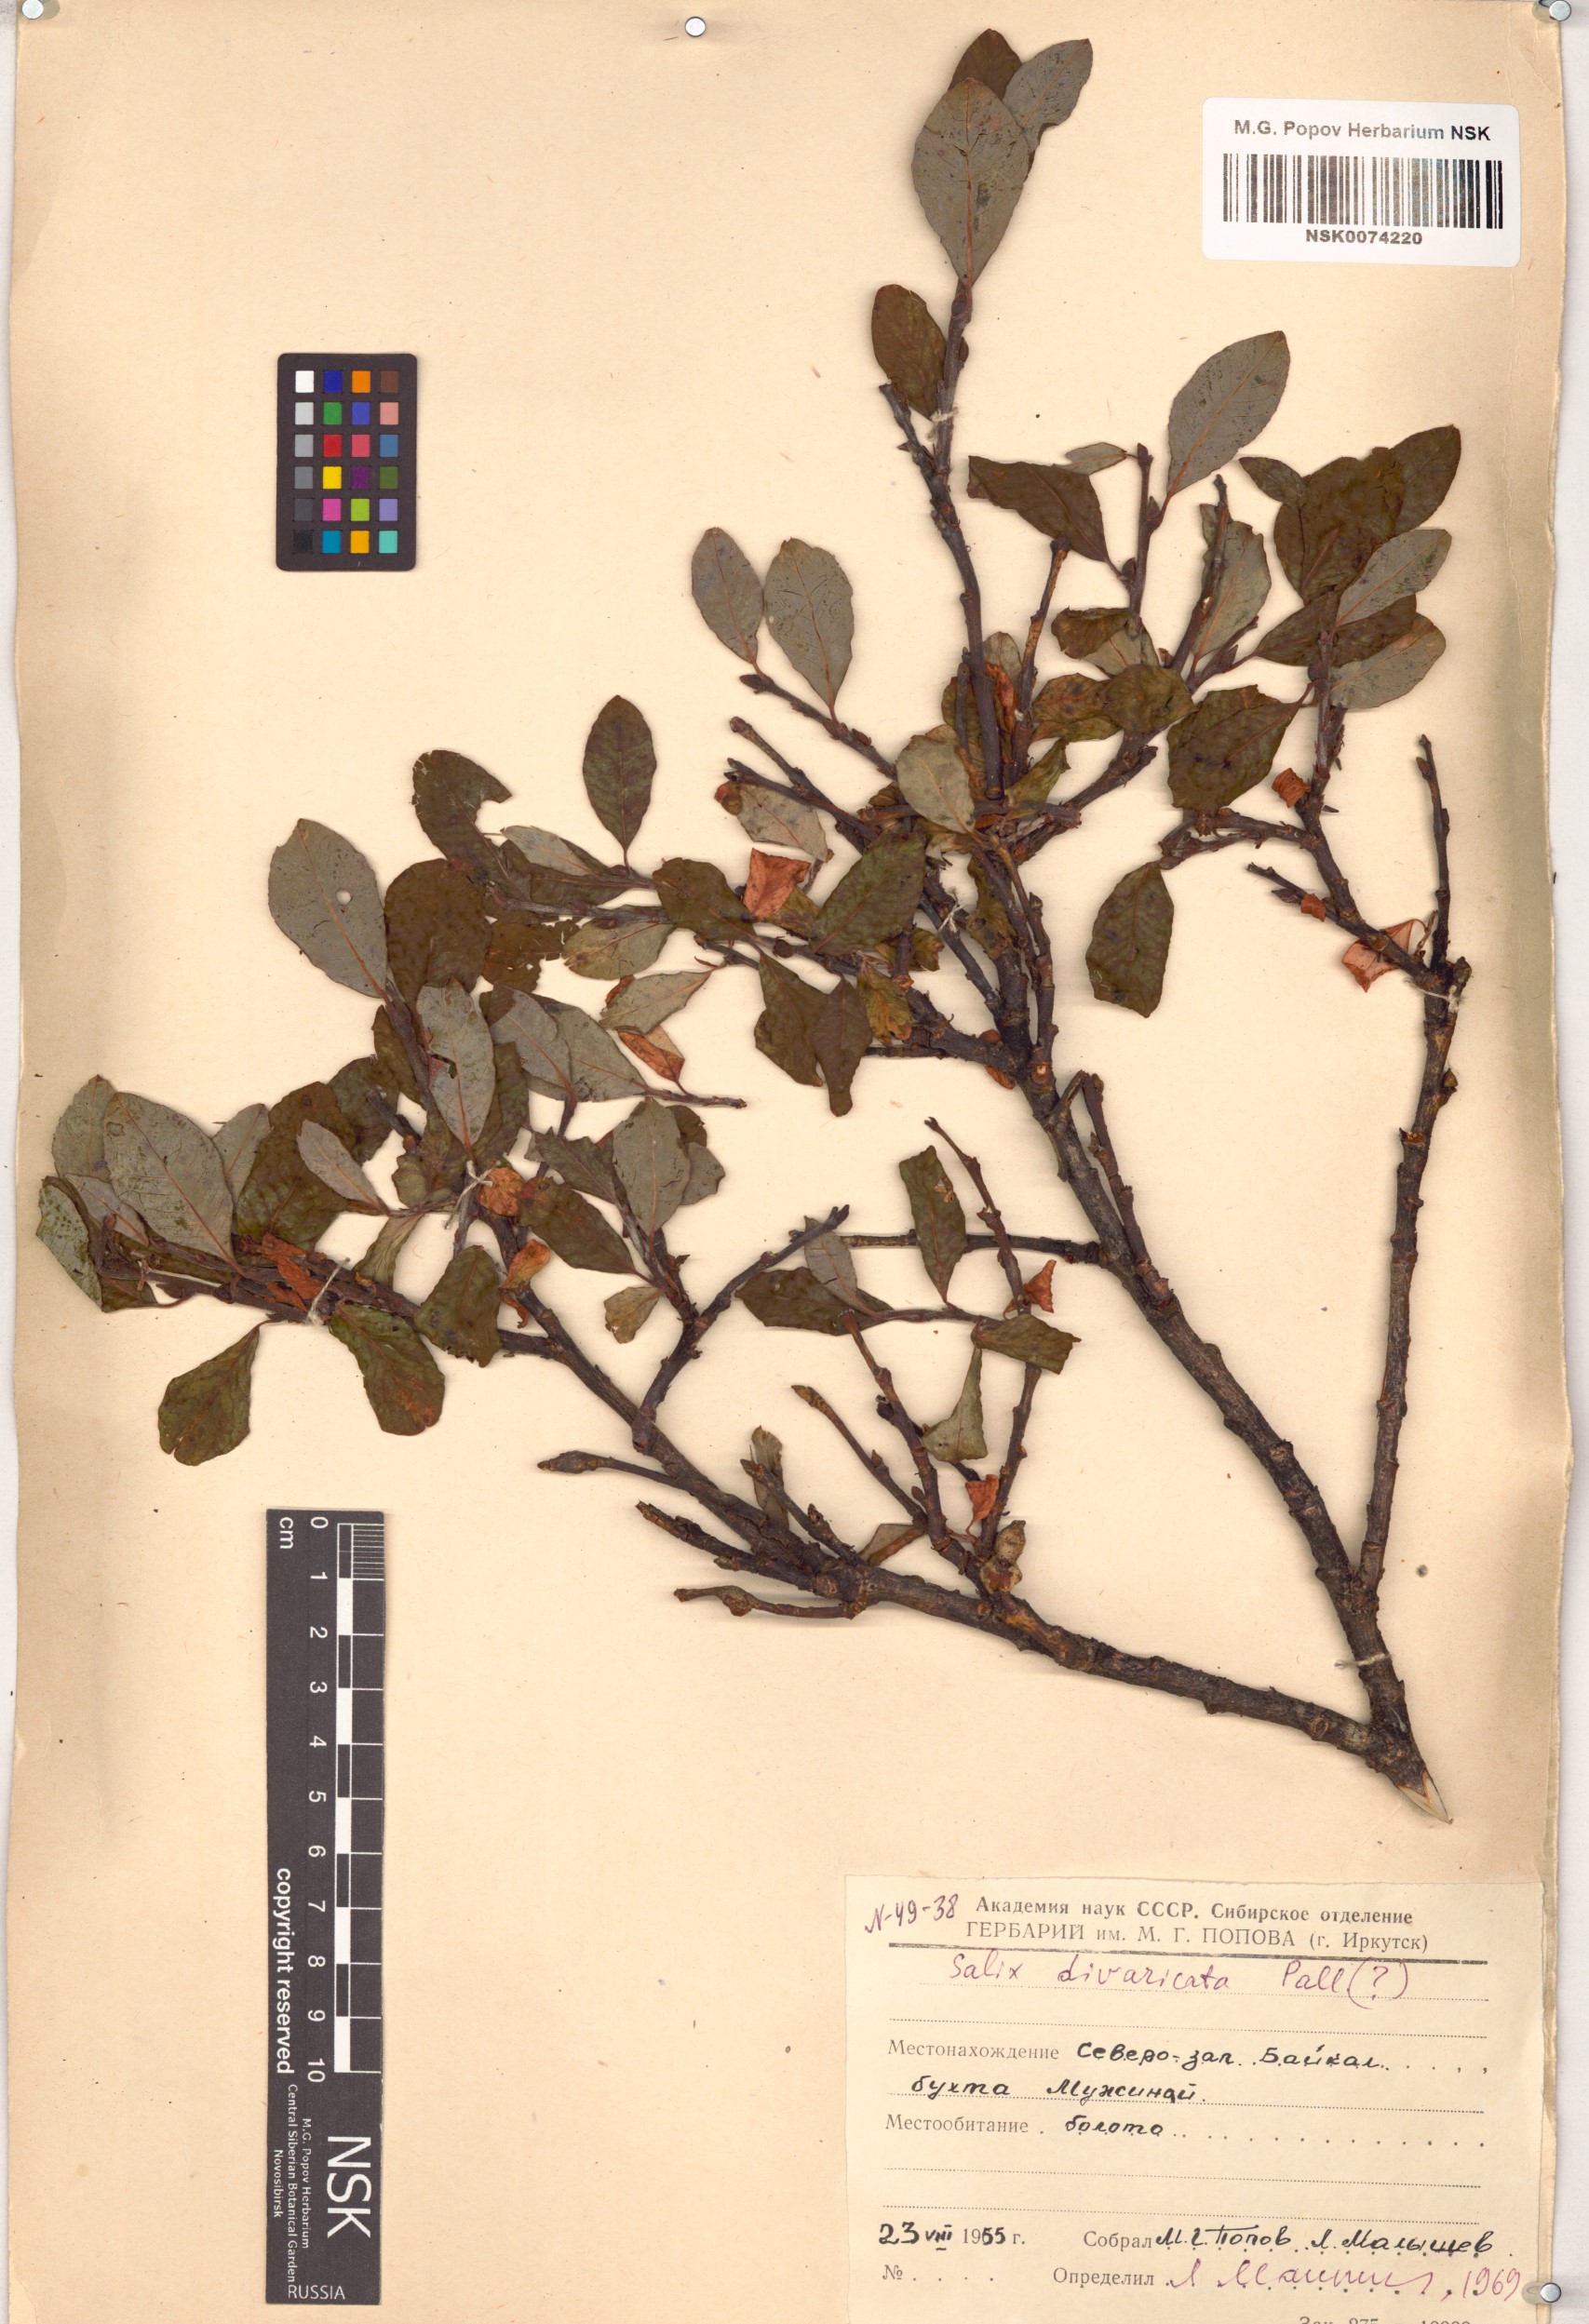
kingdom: Plantae
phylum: Tracheophyta
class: Magnoliopsida
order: Malpighiales
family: Salicaceae
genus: Salix
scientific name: Salix divaricata
